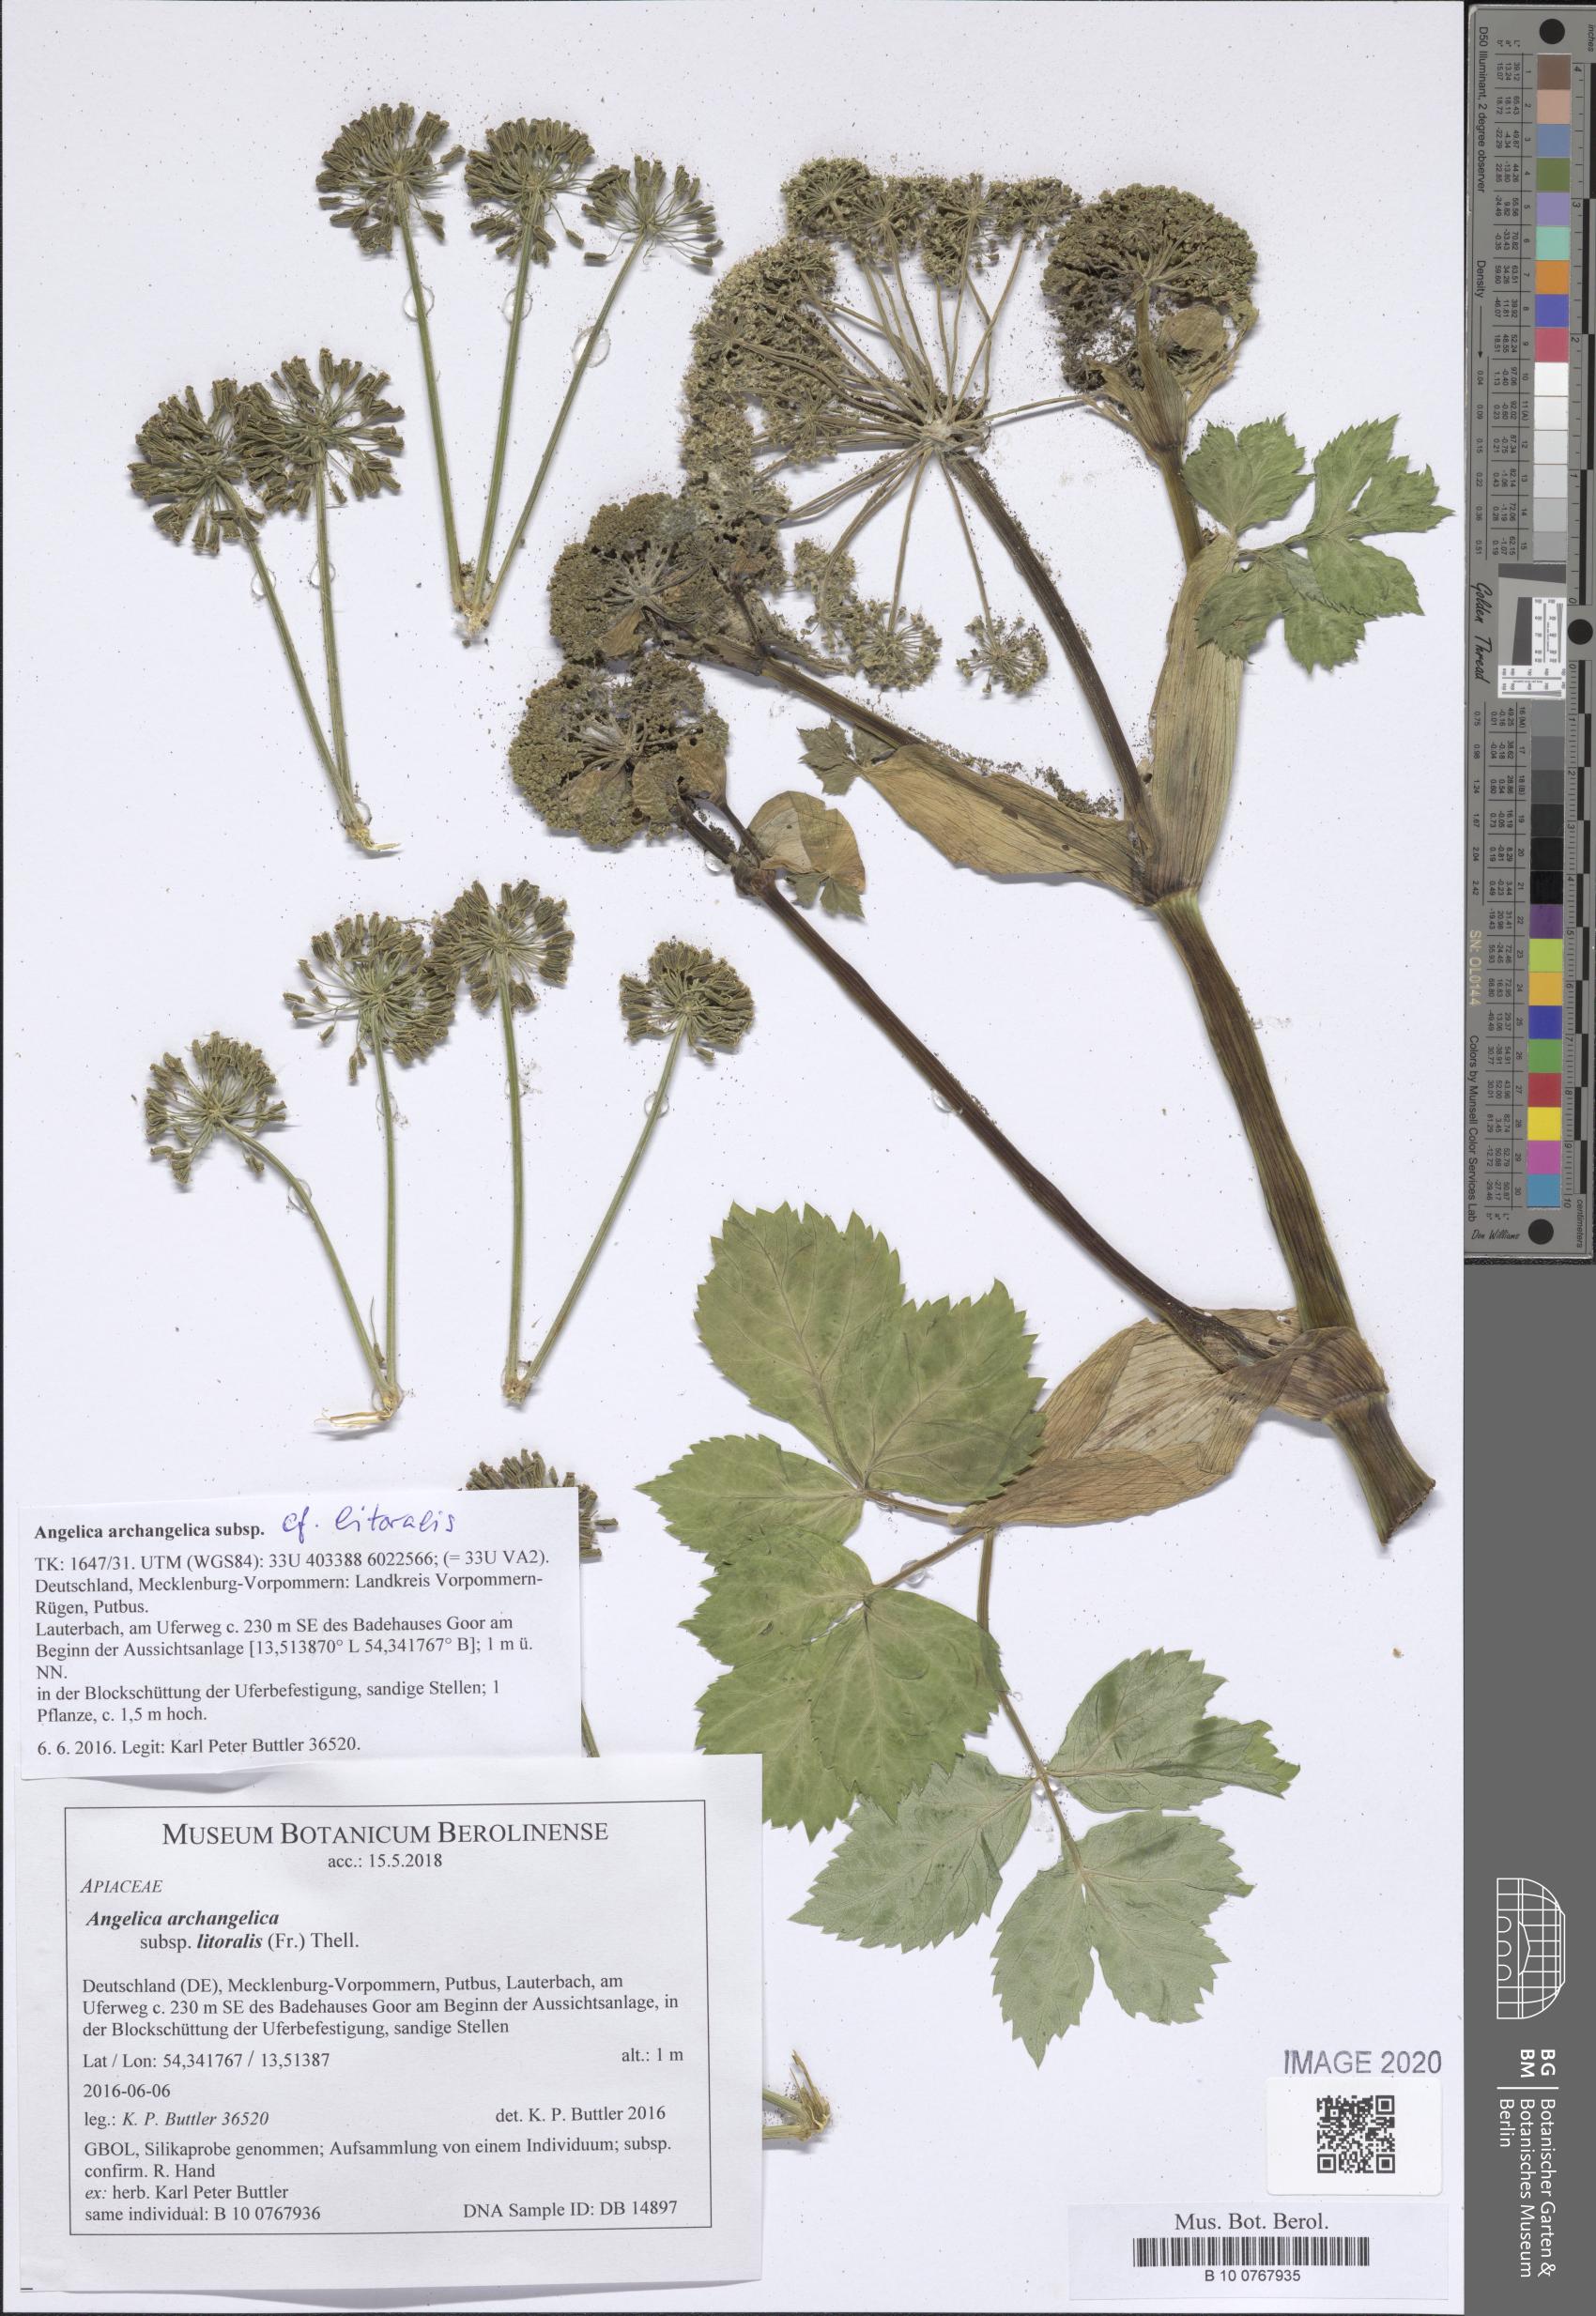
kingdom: Plantae
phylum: Tracheophyta
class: Magnoliopsida
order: Apiales
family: Apiaceae
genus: Angelica
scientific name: Angelica archangelica
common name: Garden angelica
